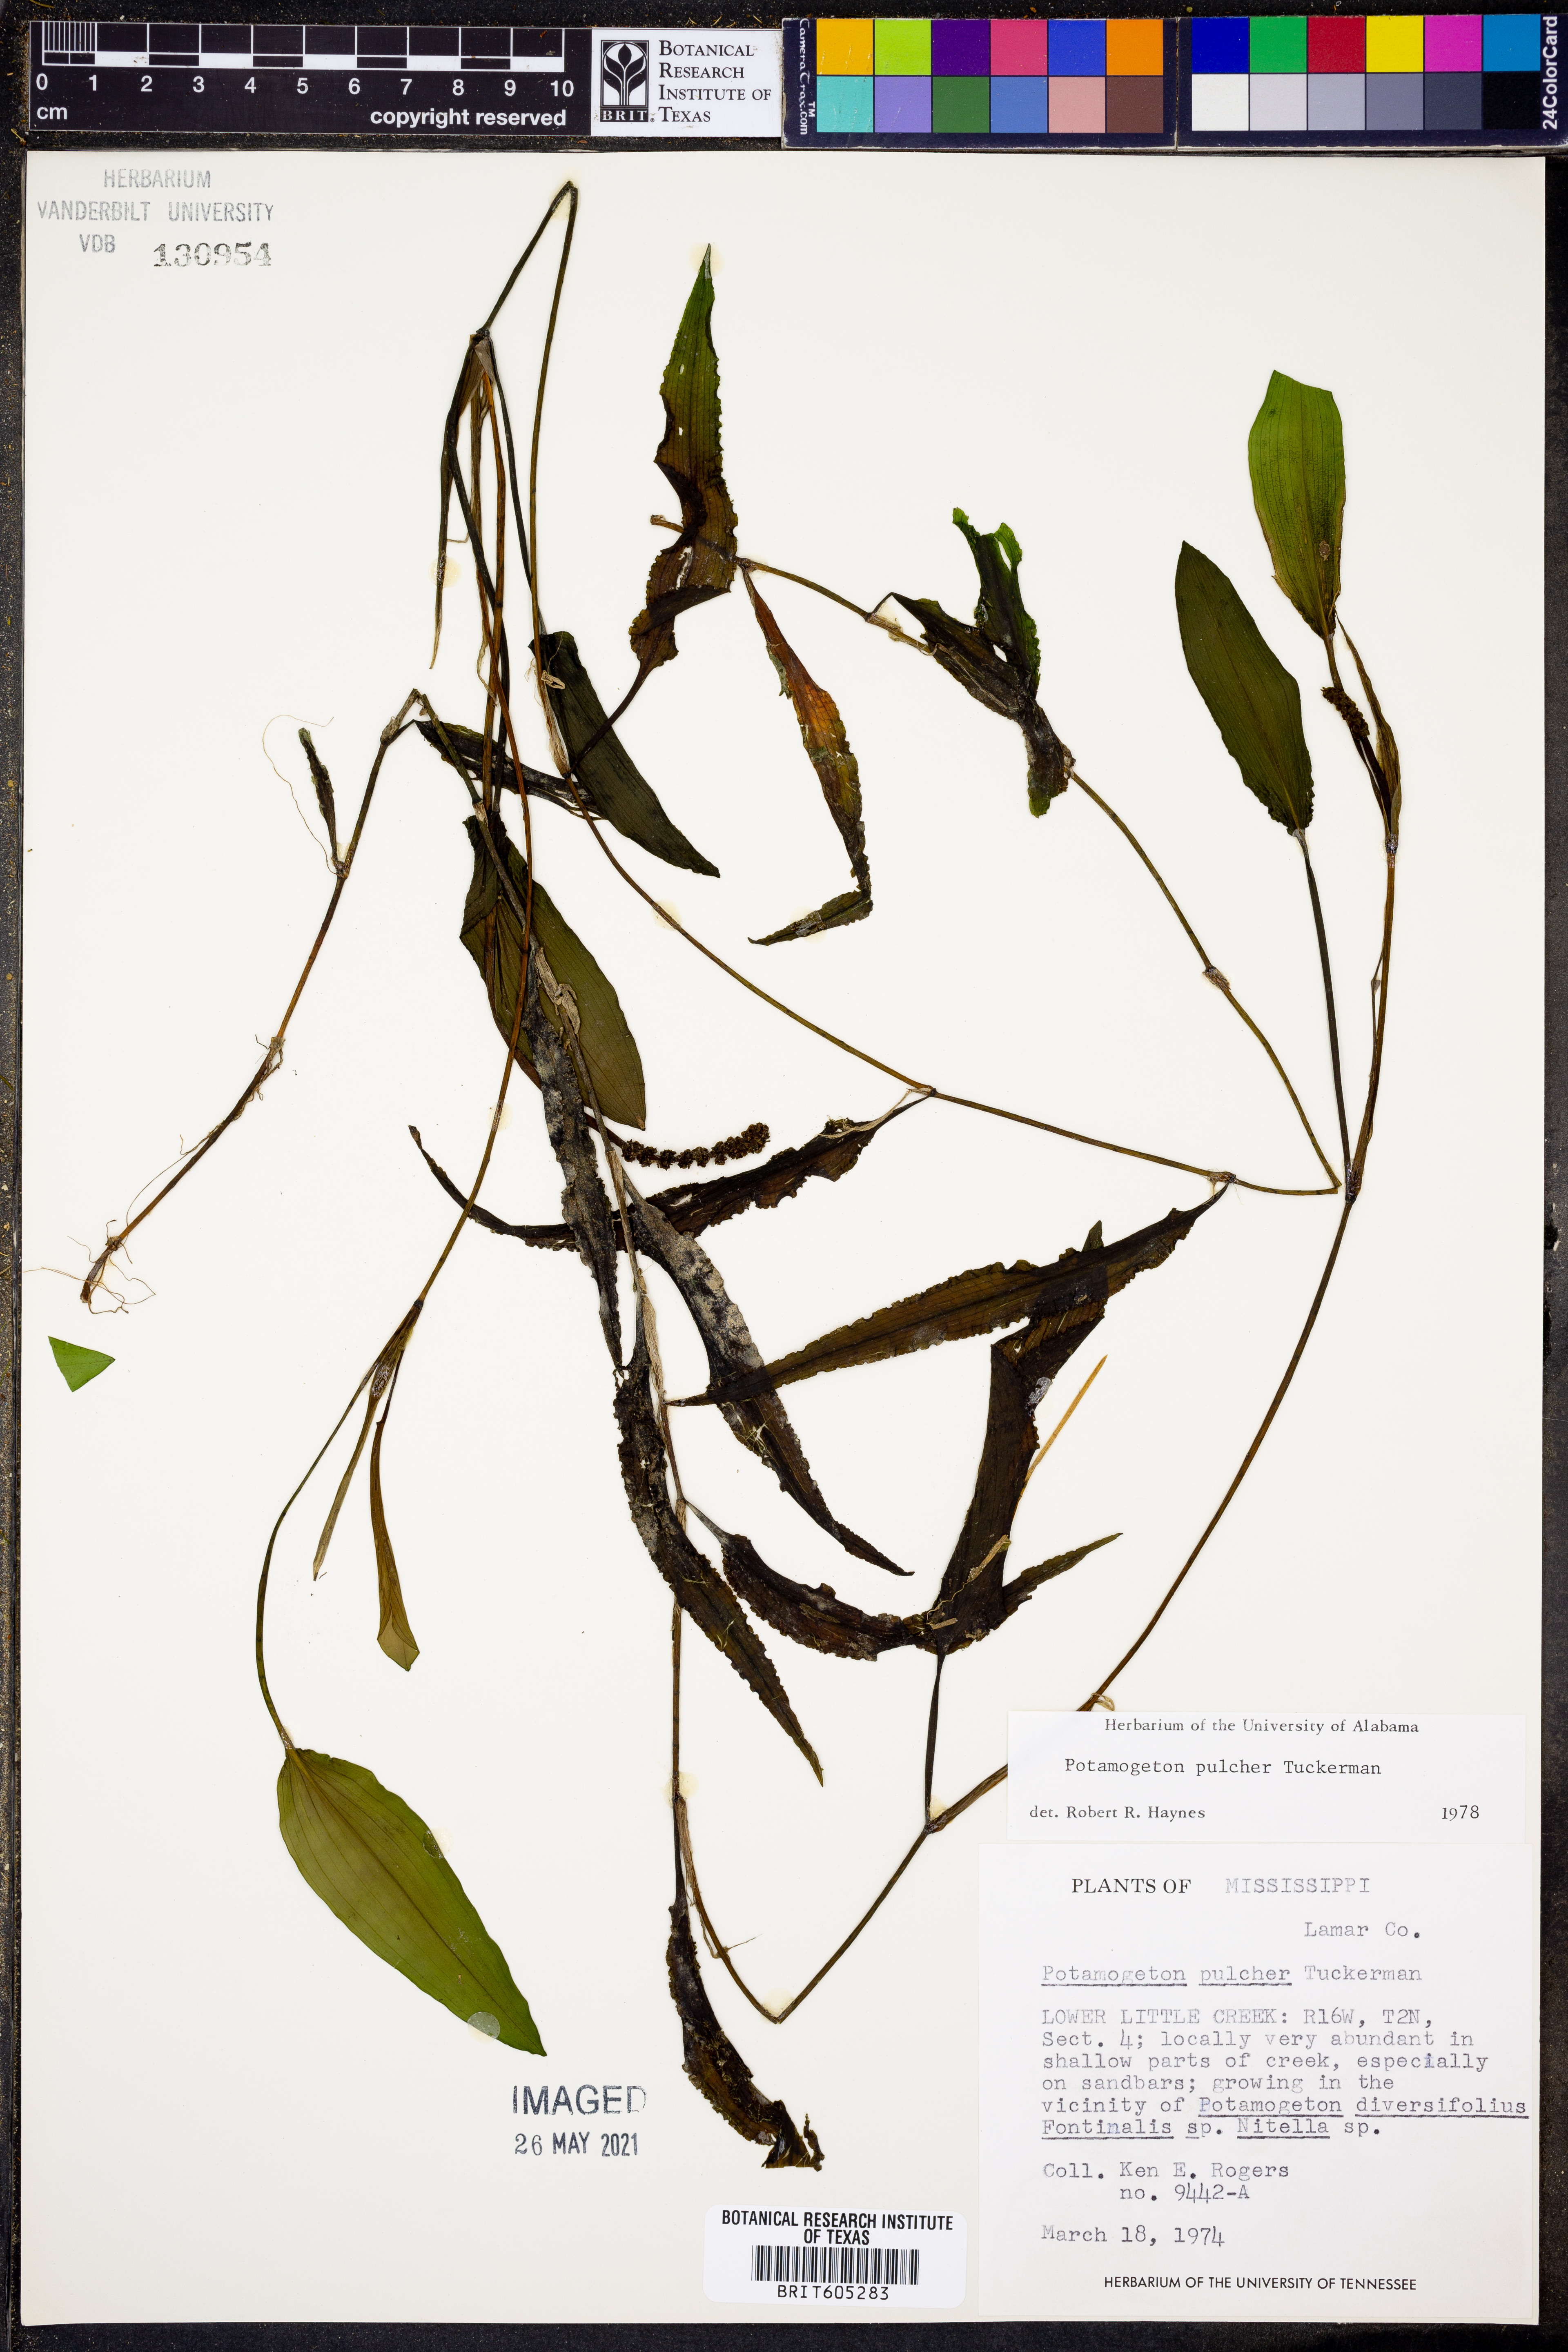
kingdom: Plantae
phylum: Tracheophyta
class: Liliopsida
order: Alismatales
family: Potamogetonaceae
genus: Potamogeton
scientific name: Potamogeton pulcher
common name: Heart-leaved pondweed
